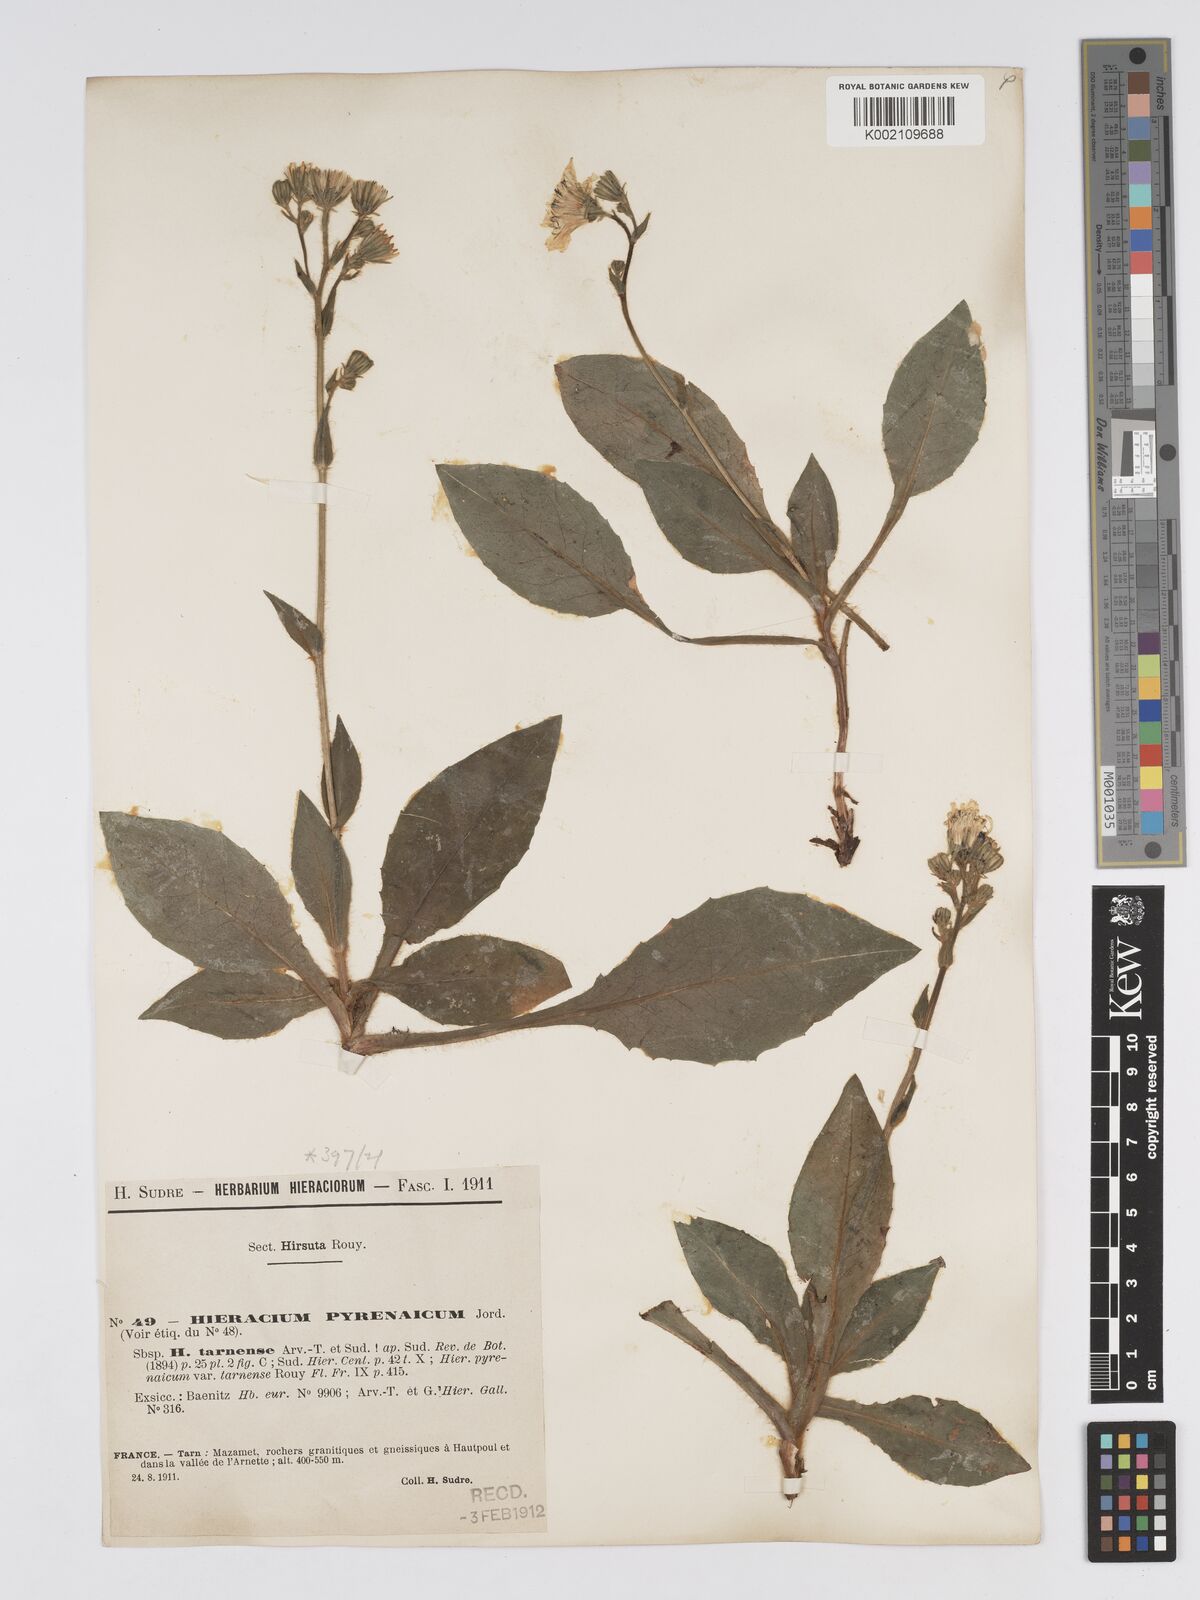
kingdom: Plantae
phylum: Tracheophyta
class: Magnoliopsida
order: Asterales
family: Asteraceae
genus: Hieracium
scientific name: Hieracium nobile
